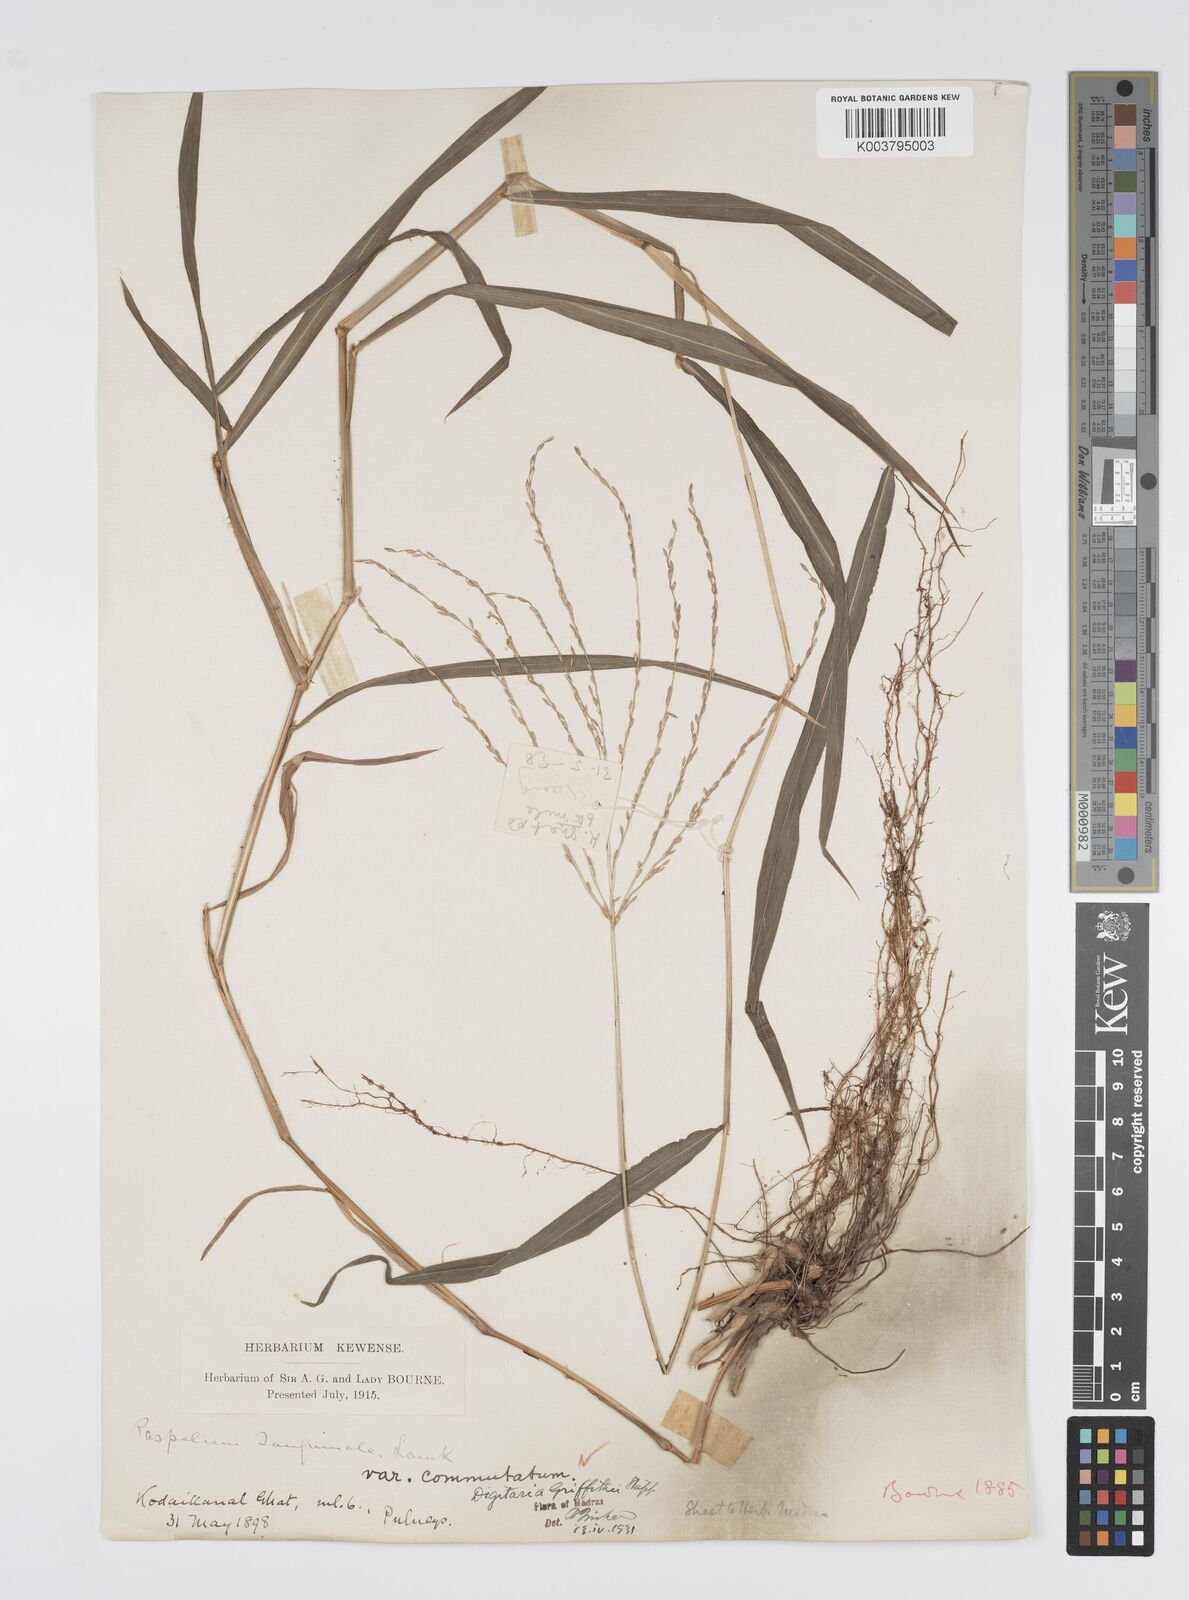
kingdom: Plantae
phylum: Tracheophyta
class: Liliopsida
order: Poales
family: Poaceae
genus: Digitaria
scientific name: Digitaria griffithii
